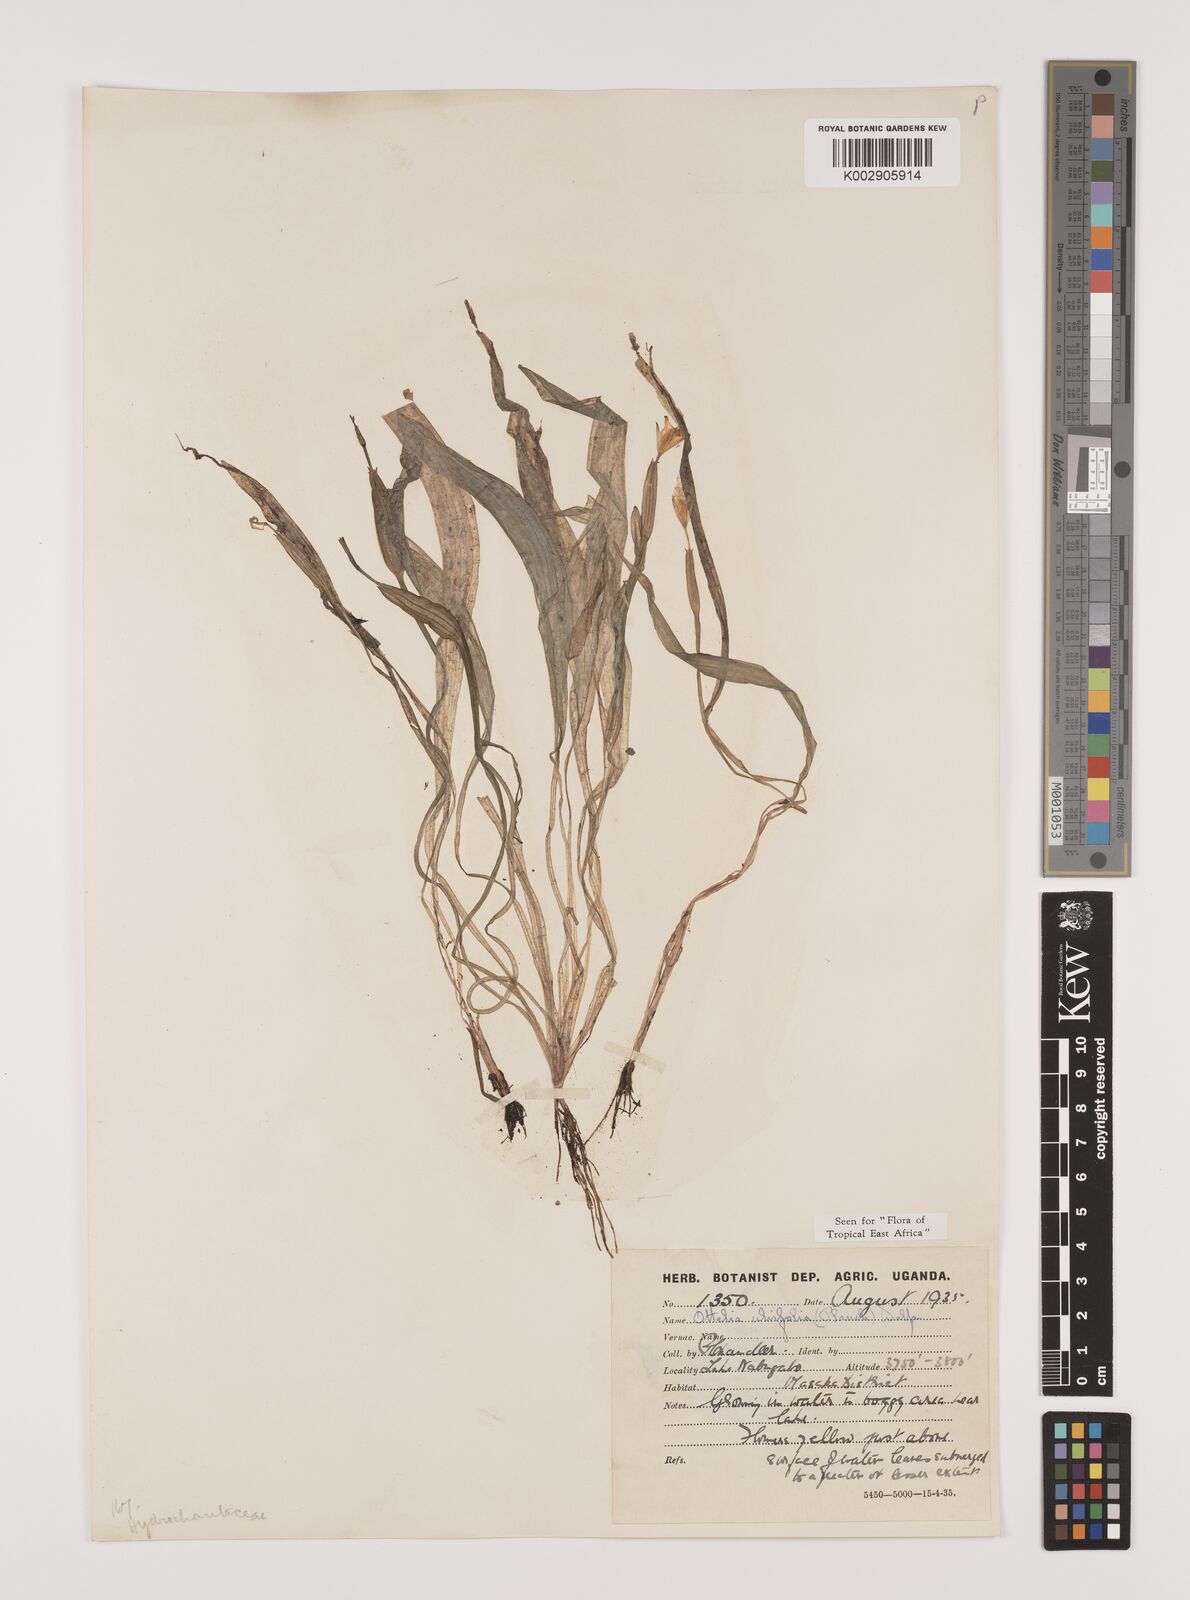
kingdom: Plantae
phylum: Tracheophyta
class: Liliopsida
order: Alismatales
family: Hydrocharitaceae
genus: Ottelia
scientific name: Ottelia ulvifolia
